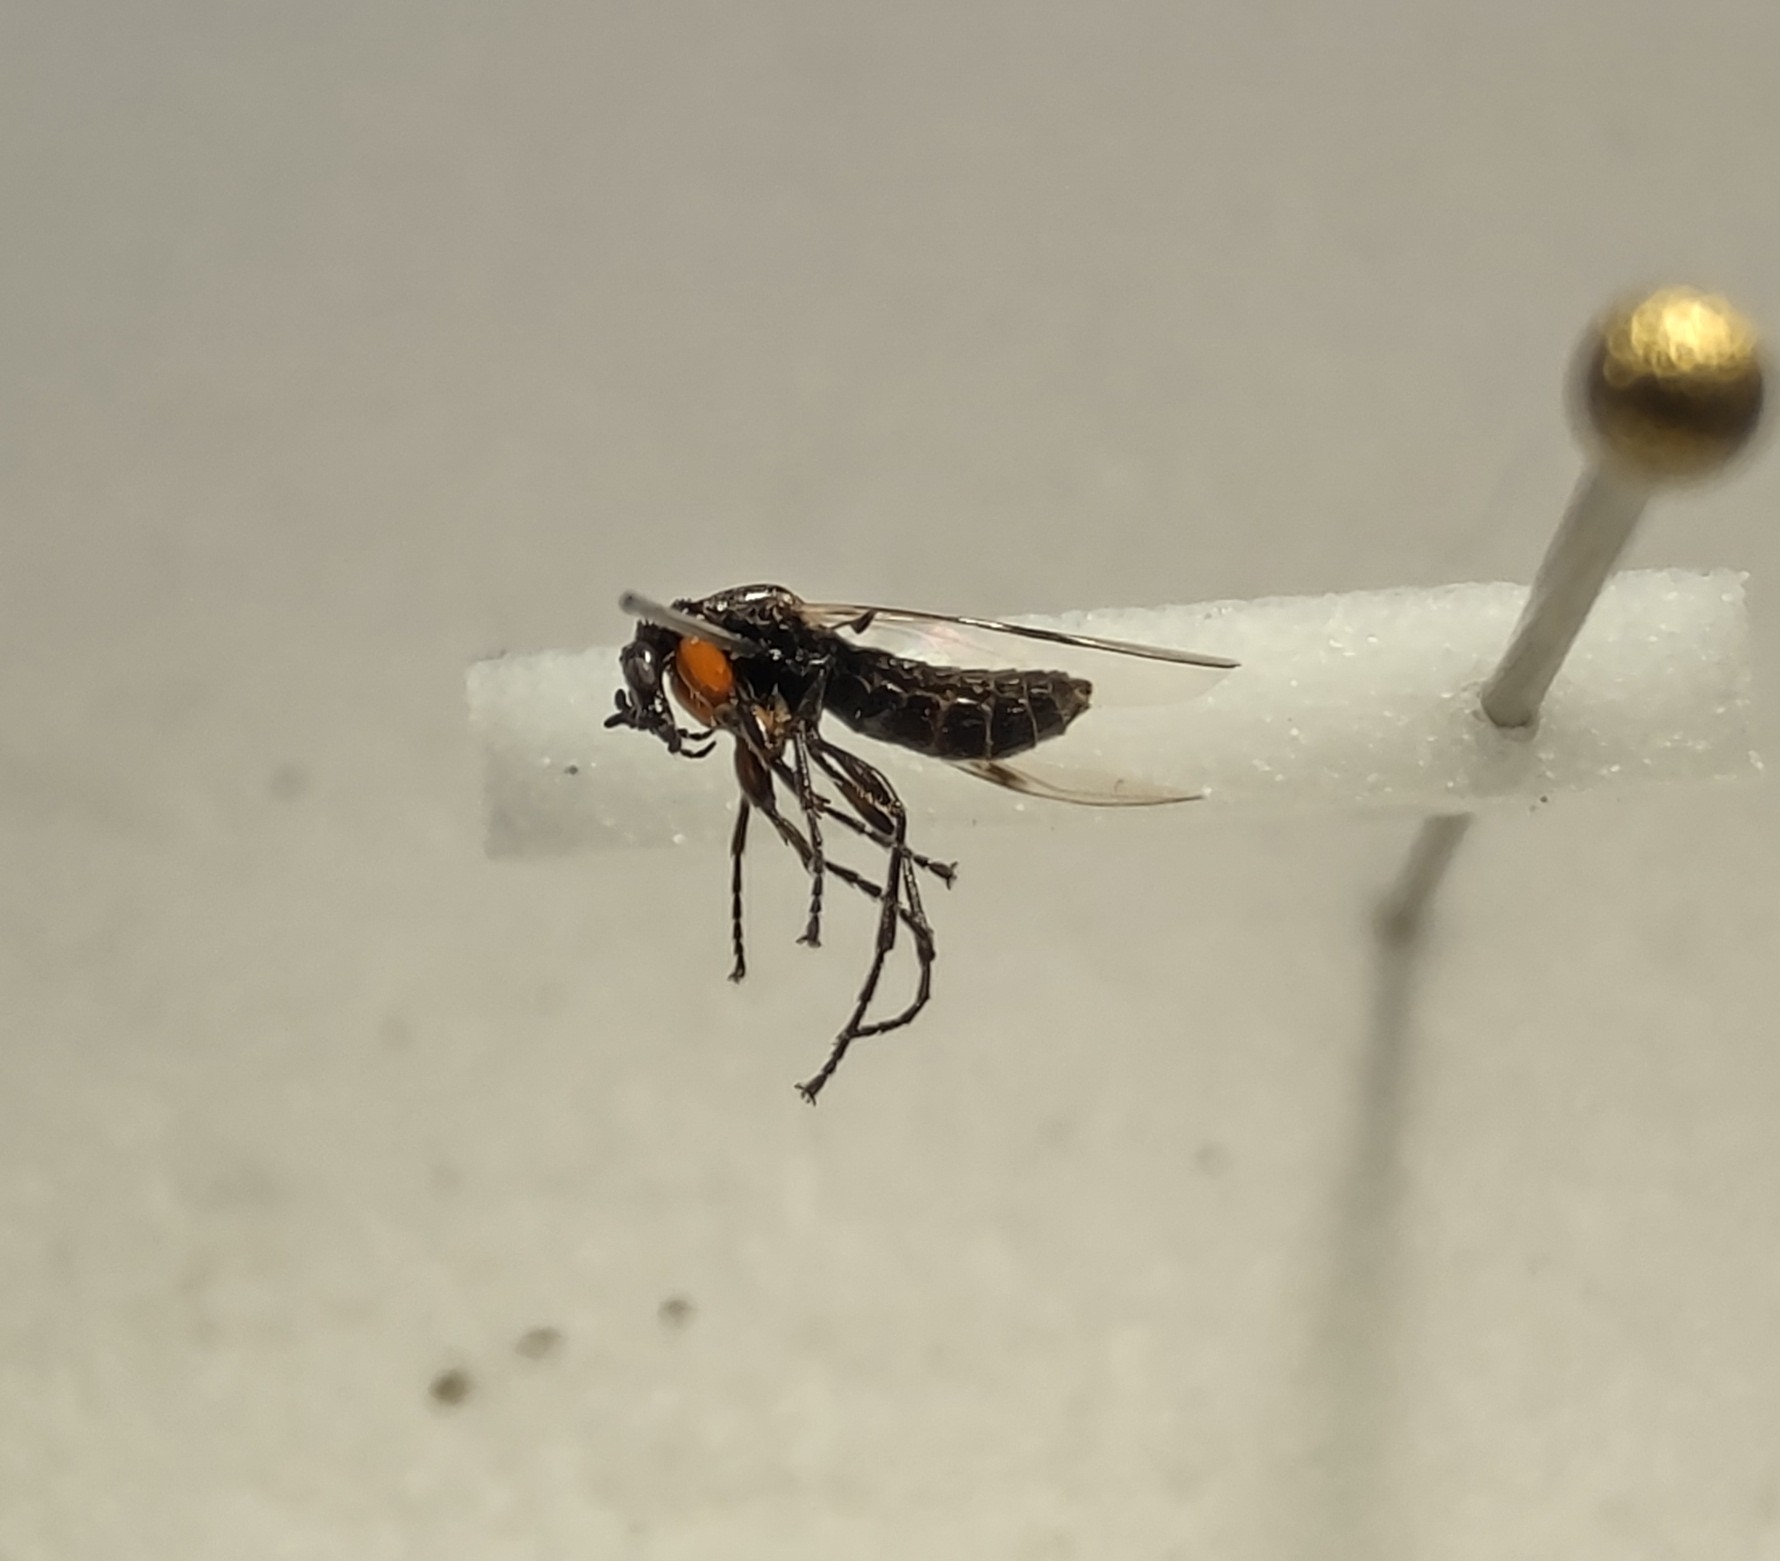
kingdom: Animalia
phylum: Arthropoda
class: Insecta
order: Diptera
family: Bibionidae
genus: Dilophus
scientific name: Dilophus femoratus
